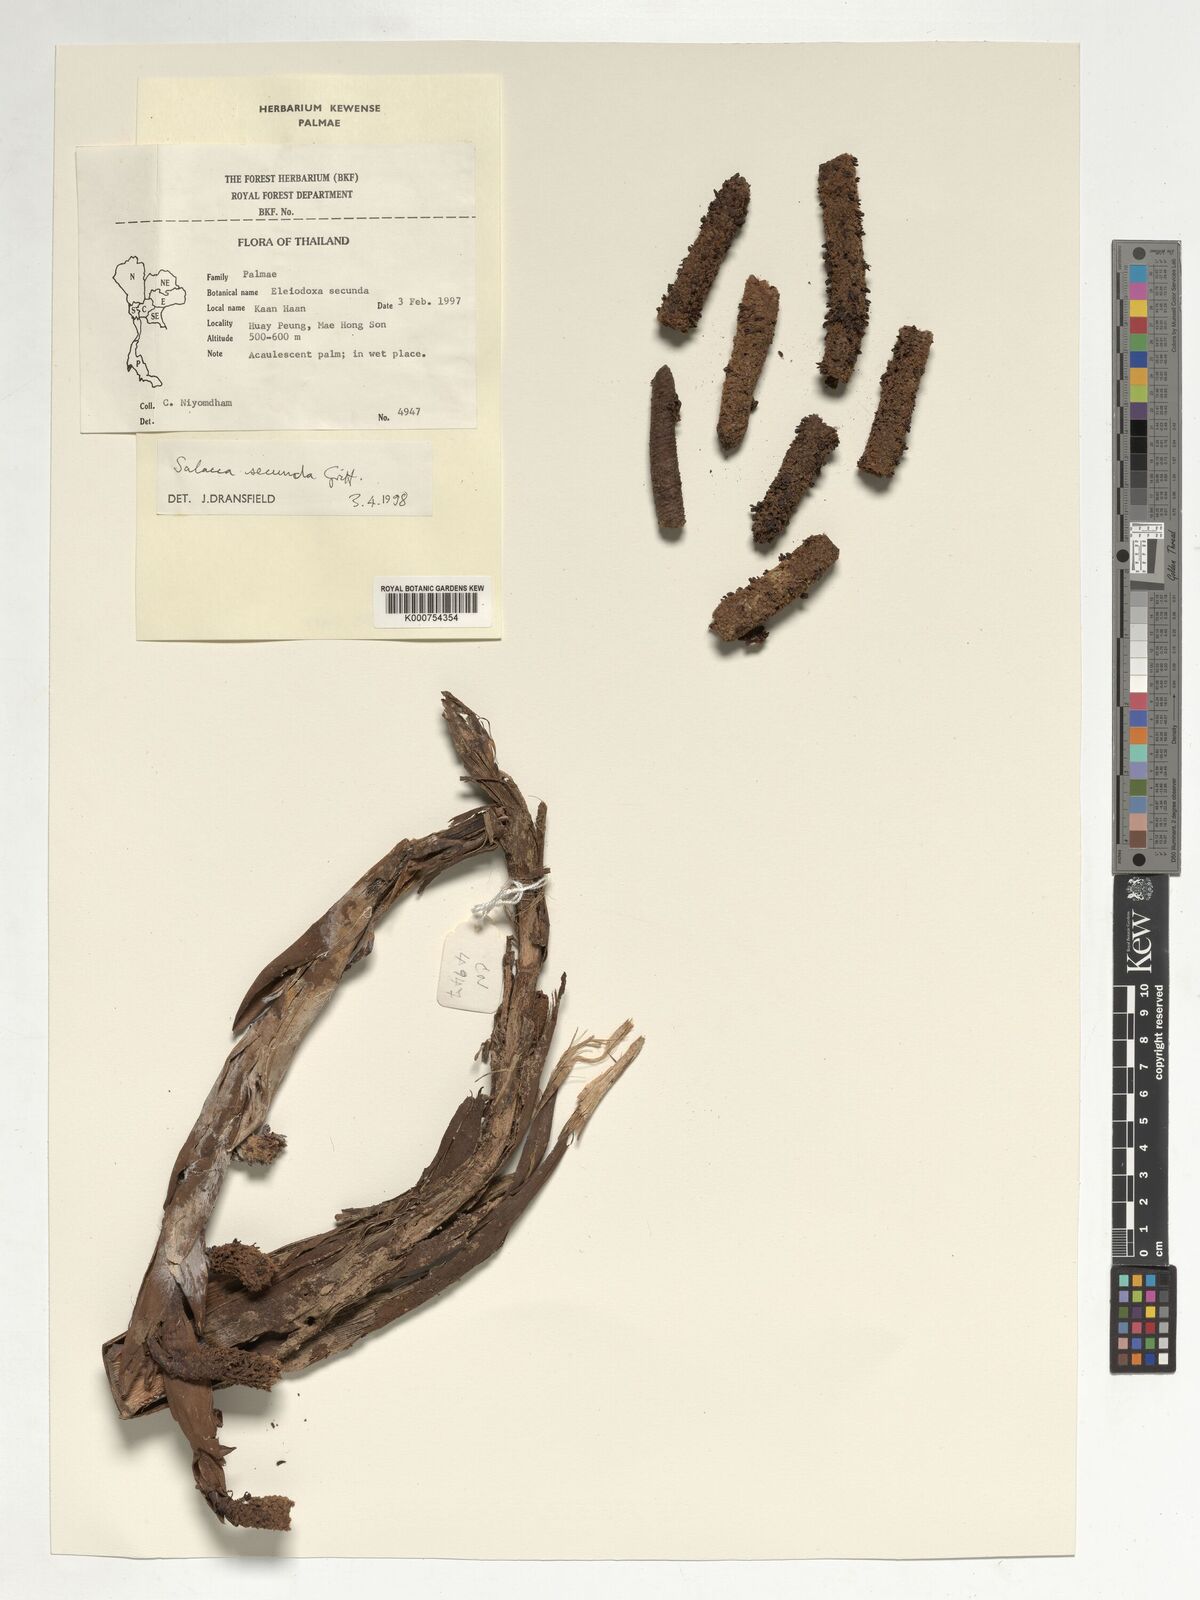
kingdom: Plantae
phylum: Tracheophyta
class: Liliopsida
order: Arecales
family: Arecaceae
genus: Salacca
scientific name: Salacca secunda
